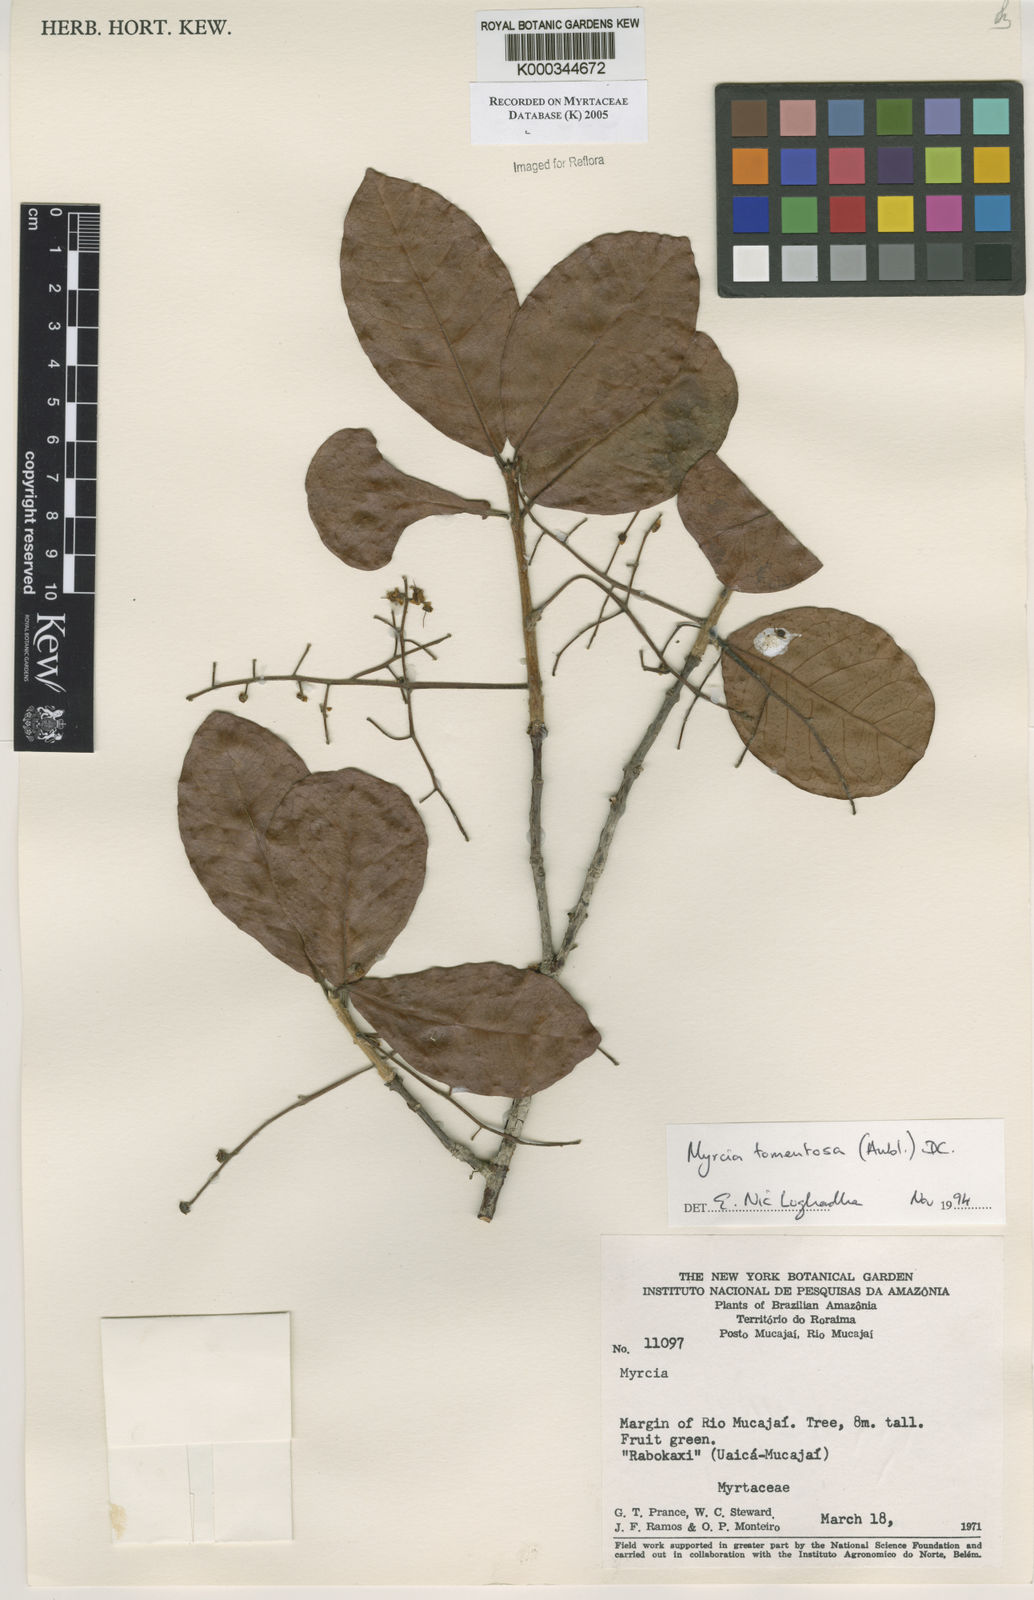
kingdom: Plantae
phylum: Tracheophyta
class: Magnoliopsida
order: Myrtales
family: Myrtaceae
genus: Myrcia
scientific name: Myrcia tomentosa
